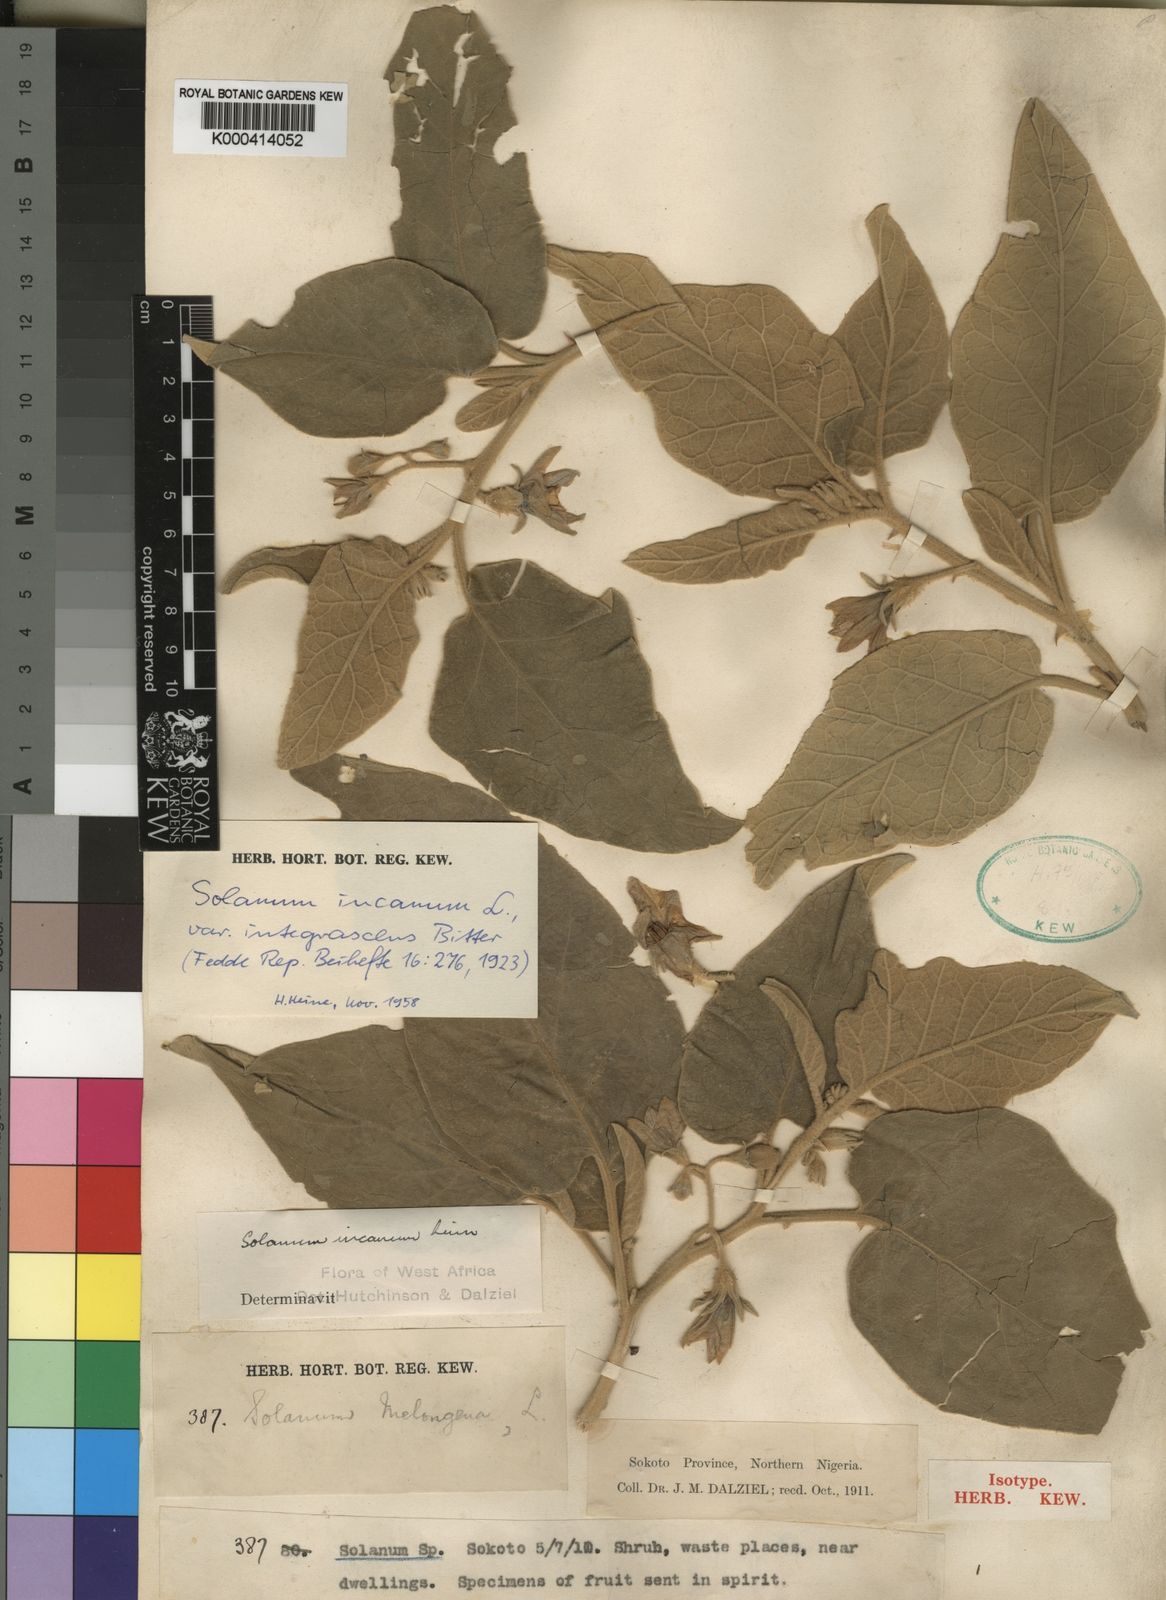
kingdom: Plantae
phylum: Tracheophyta
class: Magnoliopsida
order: Solanales
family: Solanaceae
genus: Solanum
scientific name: Solanum incanum
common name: Bitter apple
